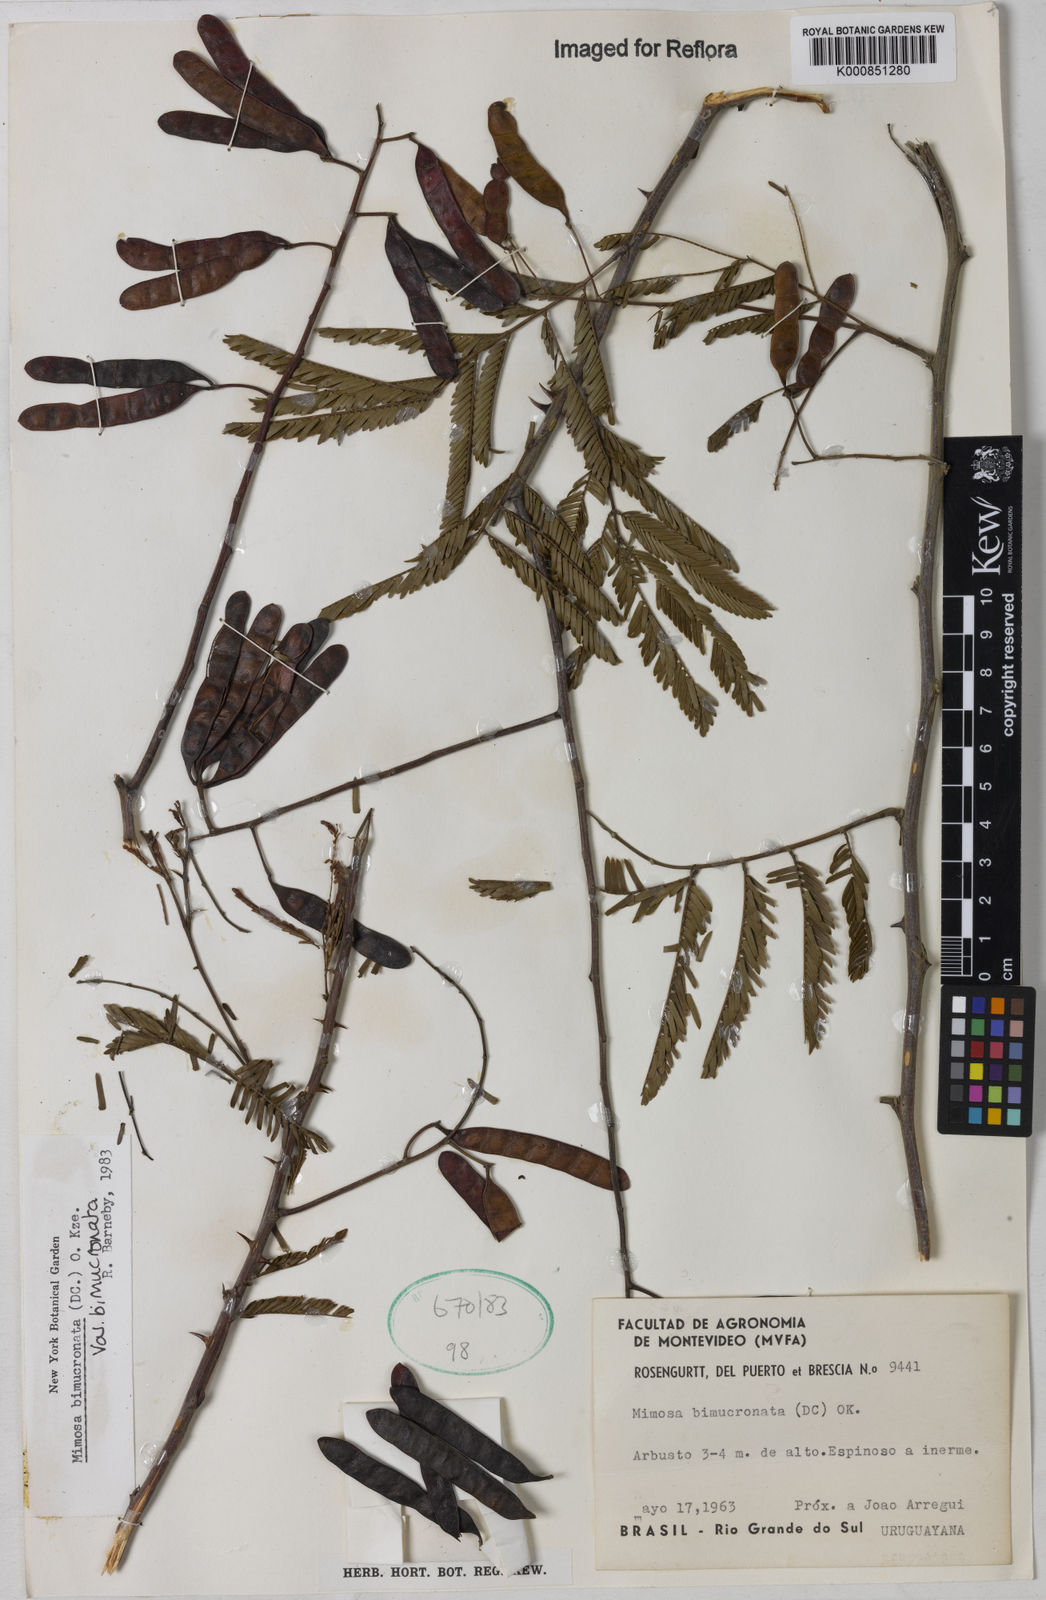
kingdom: Plantae
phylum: Tracheophyta
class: Magnoliopsida
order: Fabales
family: Fabaceae
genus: Mimosa
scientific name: Mimosa bimucronata
